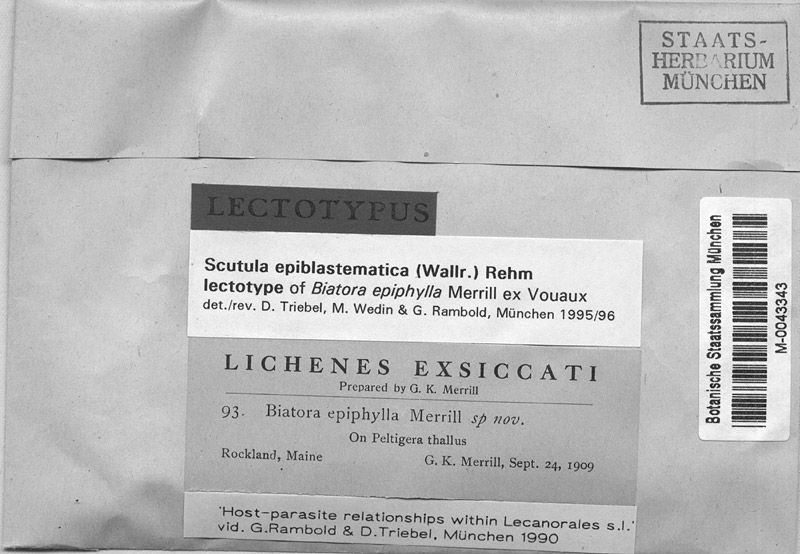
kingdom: Fungi
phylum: Ascomycota
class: Lecanoromycetes
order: Lecanorales
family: Byssolomataceae
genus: Scutula
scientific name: Scutula epiblastematica
